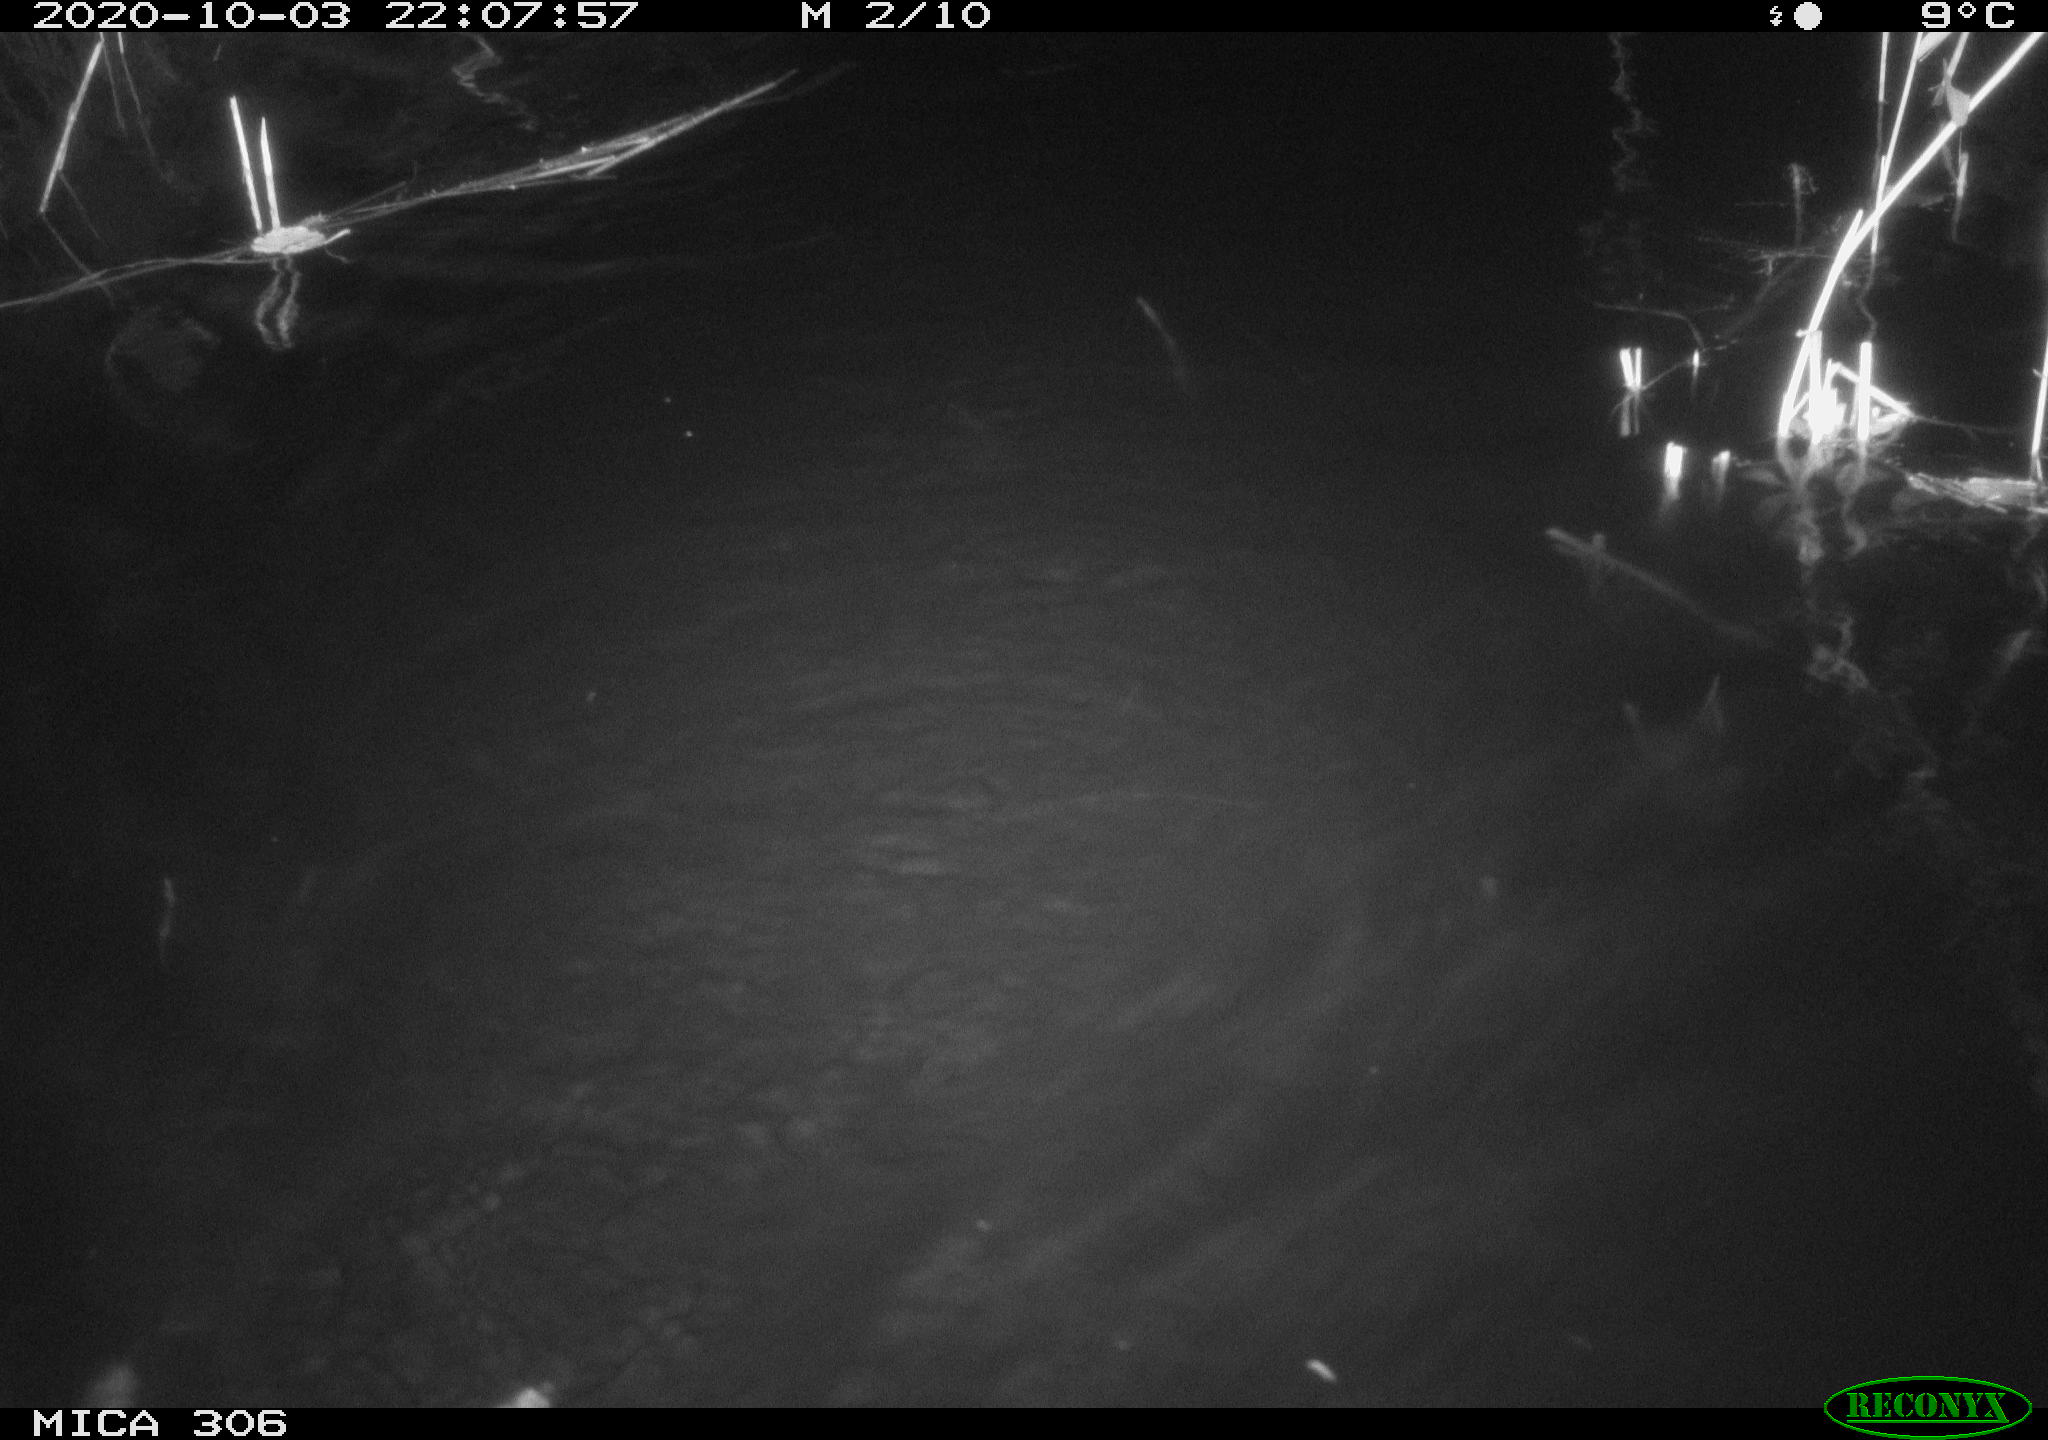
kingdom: Animalia
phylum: Chordata
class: Mammalia
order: Rodentia
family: Cricetidae
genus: Ondatra
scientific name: Ondatra zibethicus
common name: Muskrat
